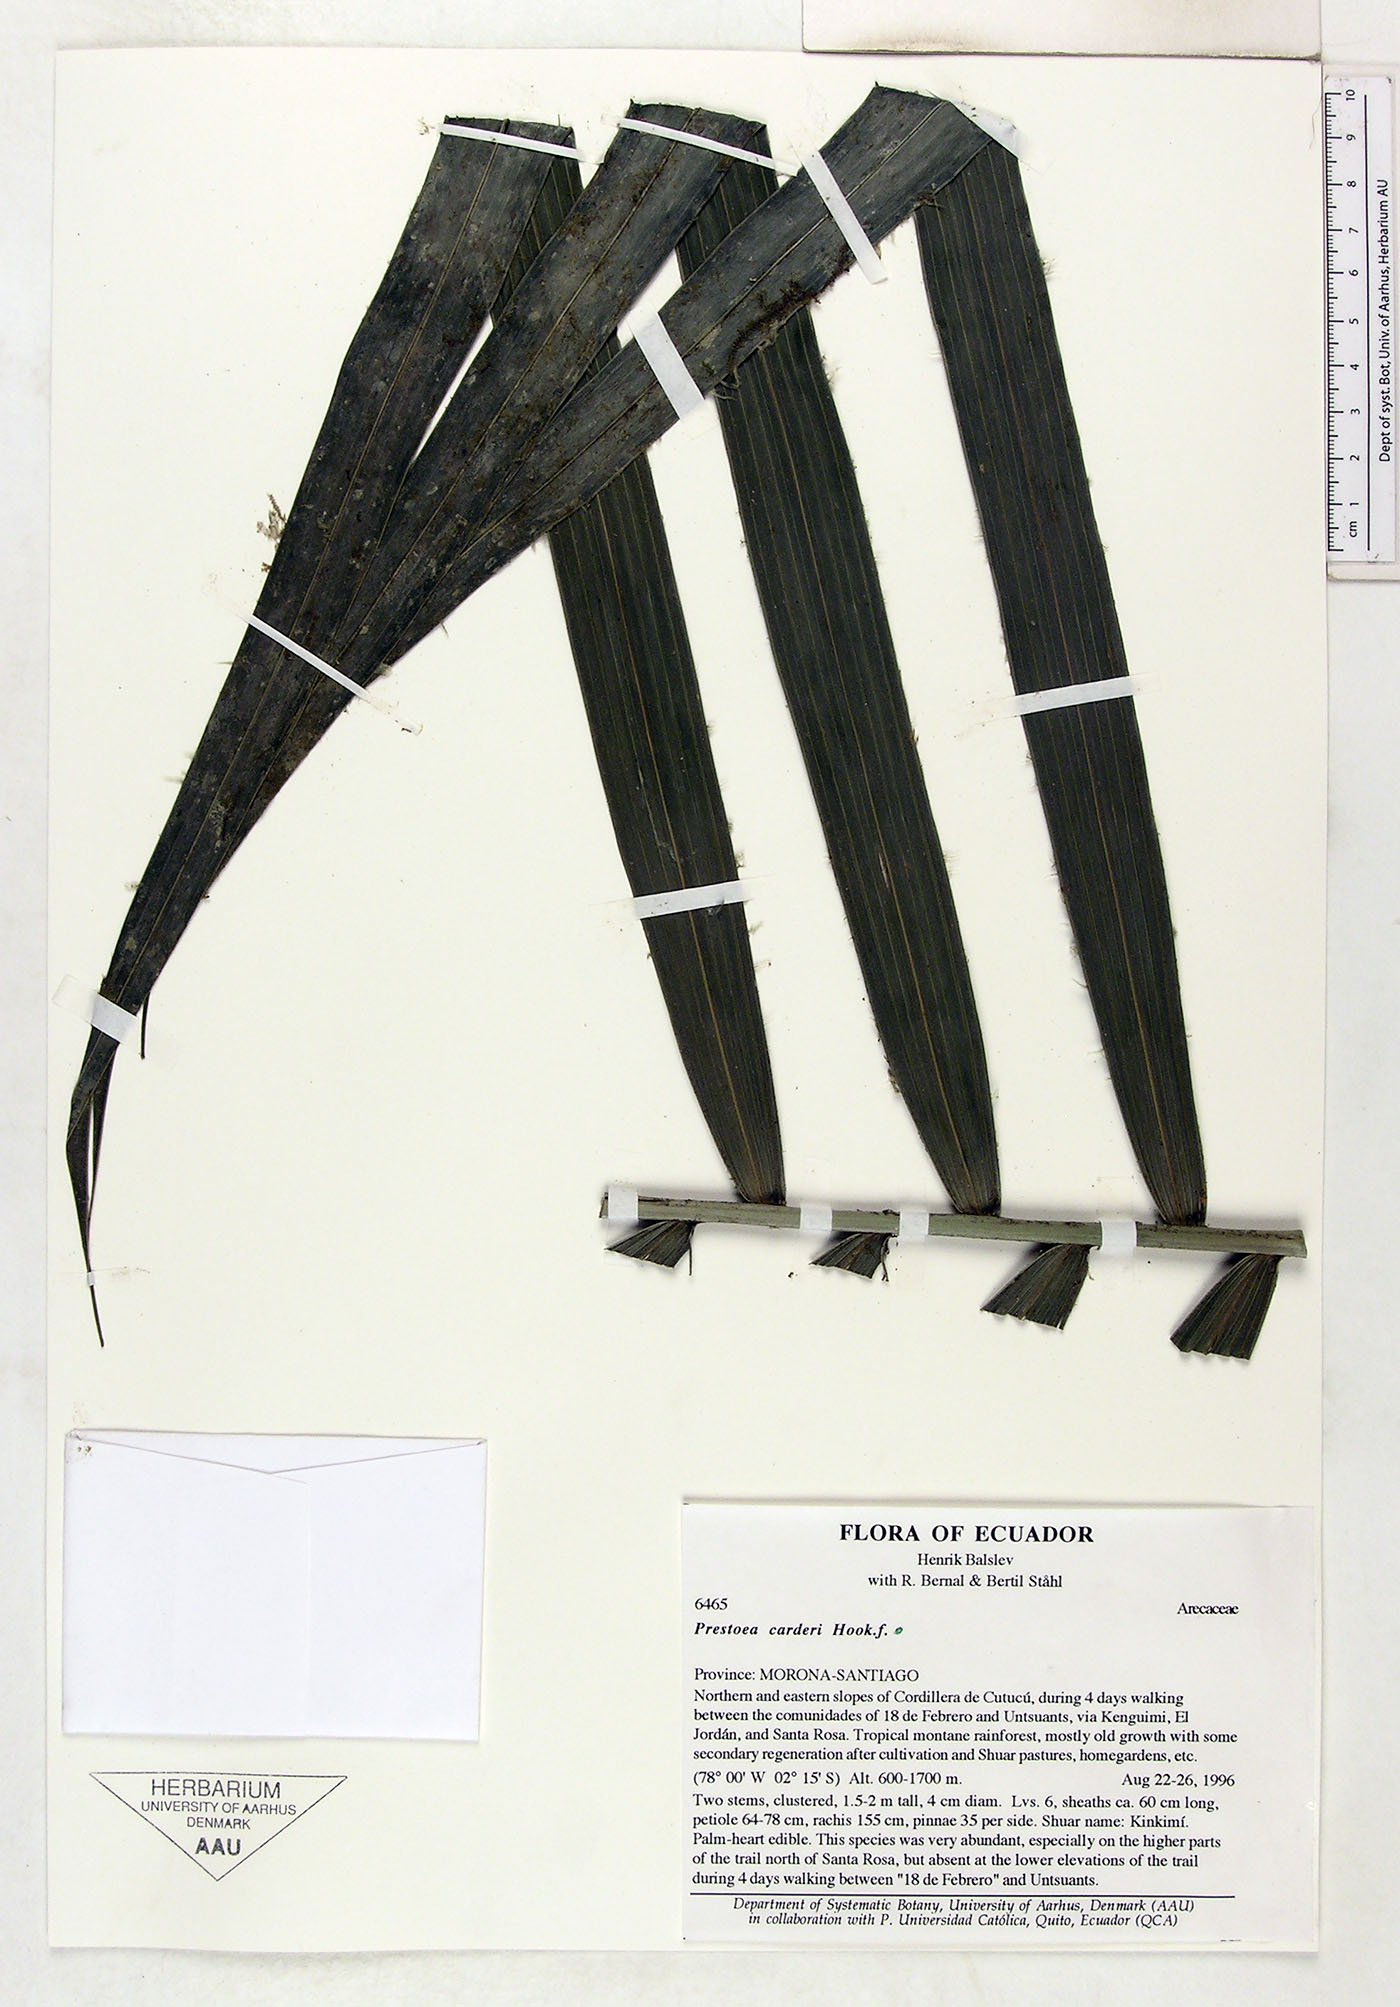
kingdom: Plantae
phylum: Tracheophyta
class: Liliopsida
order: Arecales
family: Arecaceae
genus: Prestoea
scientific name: Prestoea carderi
